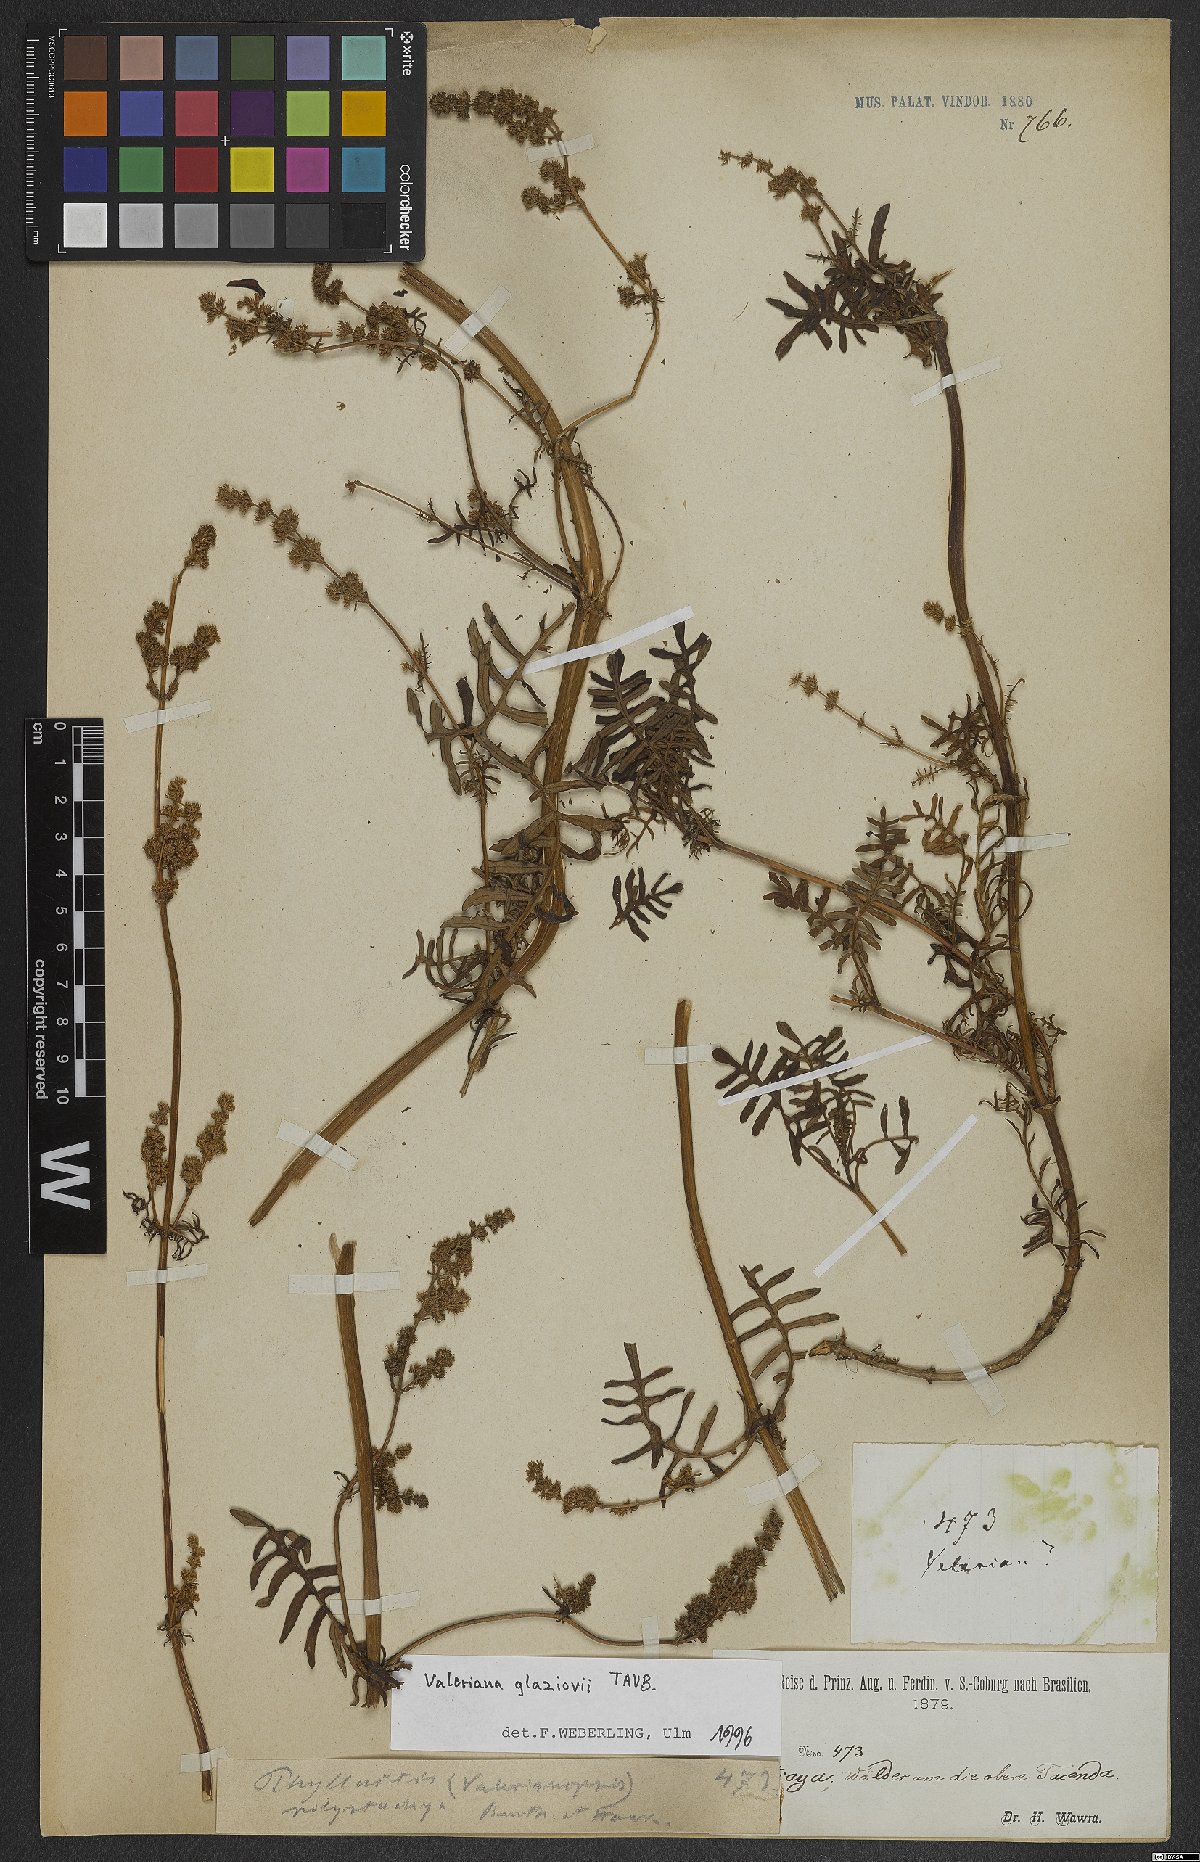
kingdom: Plantae
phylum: Tracheophyta
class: Magnoliopsida
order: Dipsacales
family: Caprifoliaceae
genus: Valeriana
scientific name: Valeriana glaziovii
